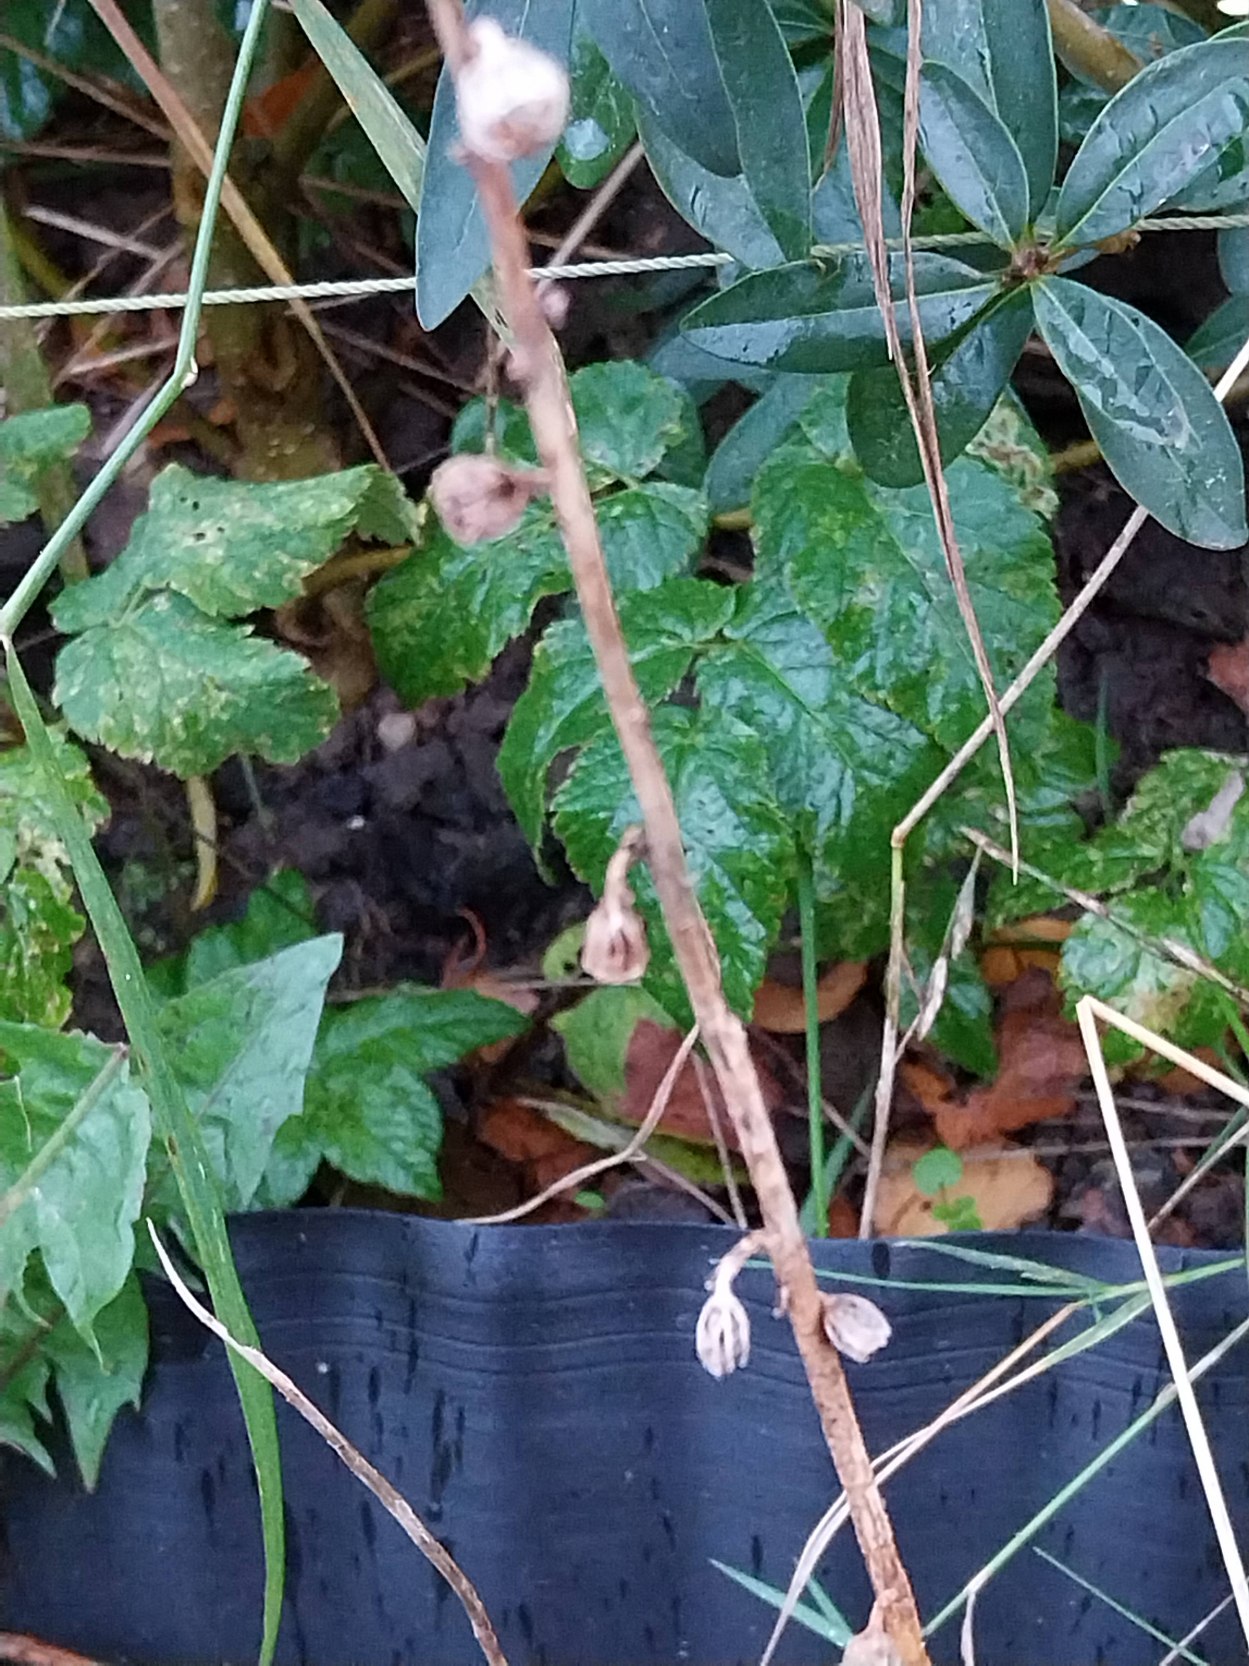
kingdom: Plantae
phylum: Tracheophyta
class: Magnoliopsida
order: Asterales
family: Campanulaceae
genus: Campanula
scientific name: Campanula rapunculoides
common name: Ensidig klokke
